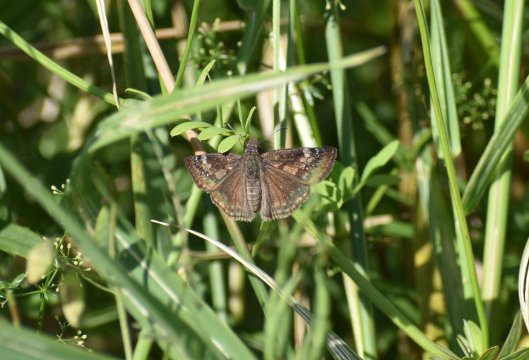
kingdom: Animalia
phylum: Arthropoda
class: Insecta
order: Lepidoptera
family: Hesperiidae
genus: Gesta
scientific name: Gesta
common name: Wild Indigo Duskywing
